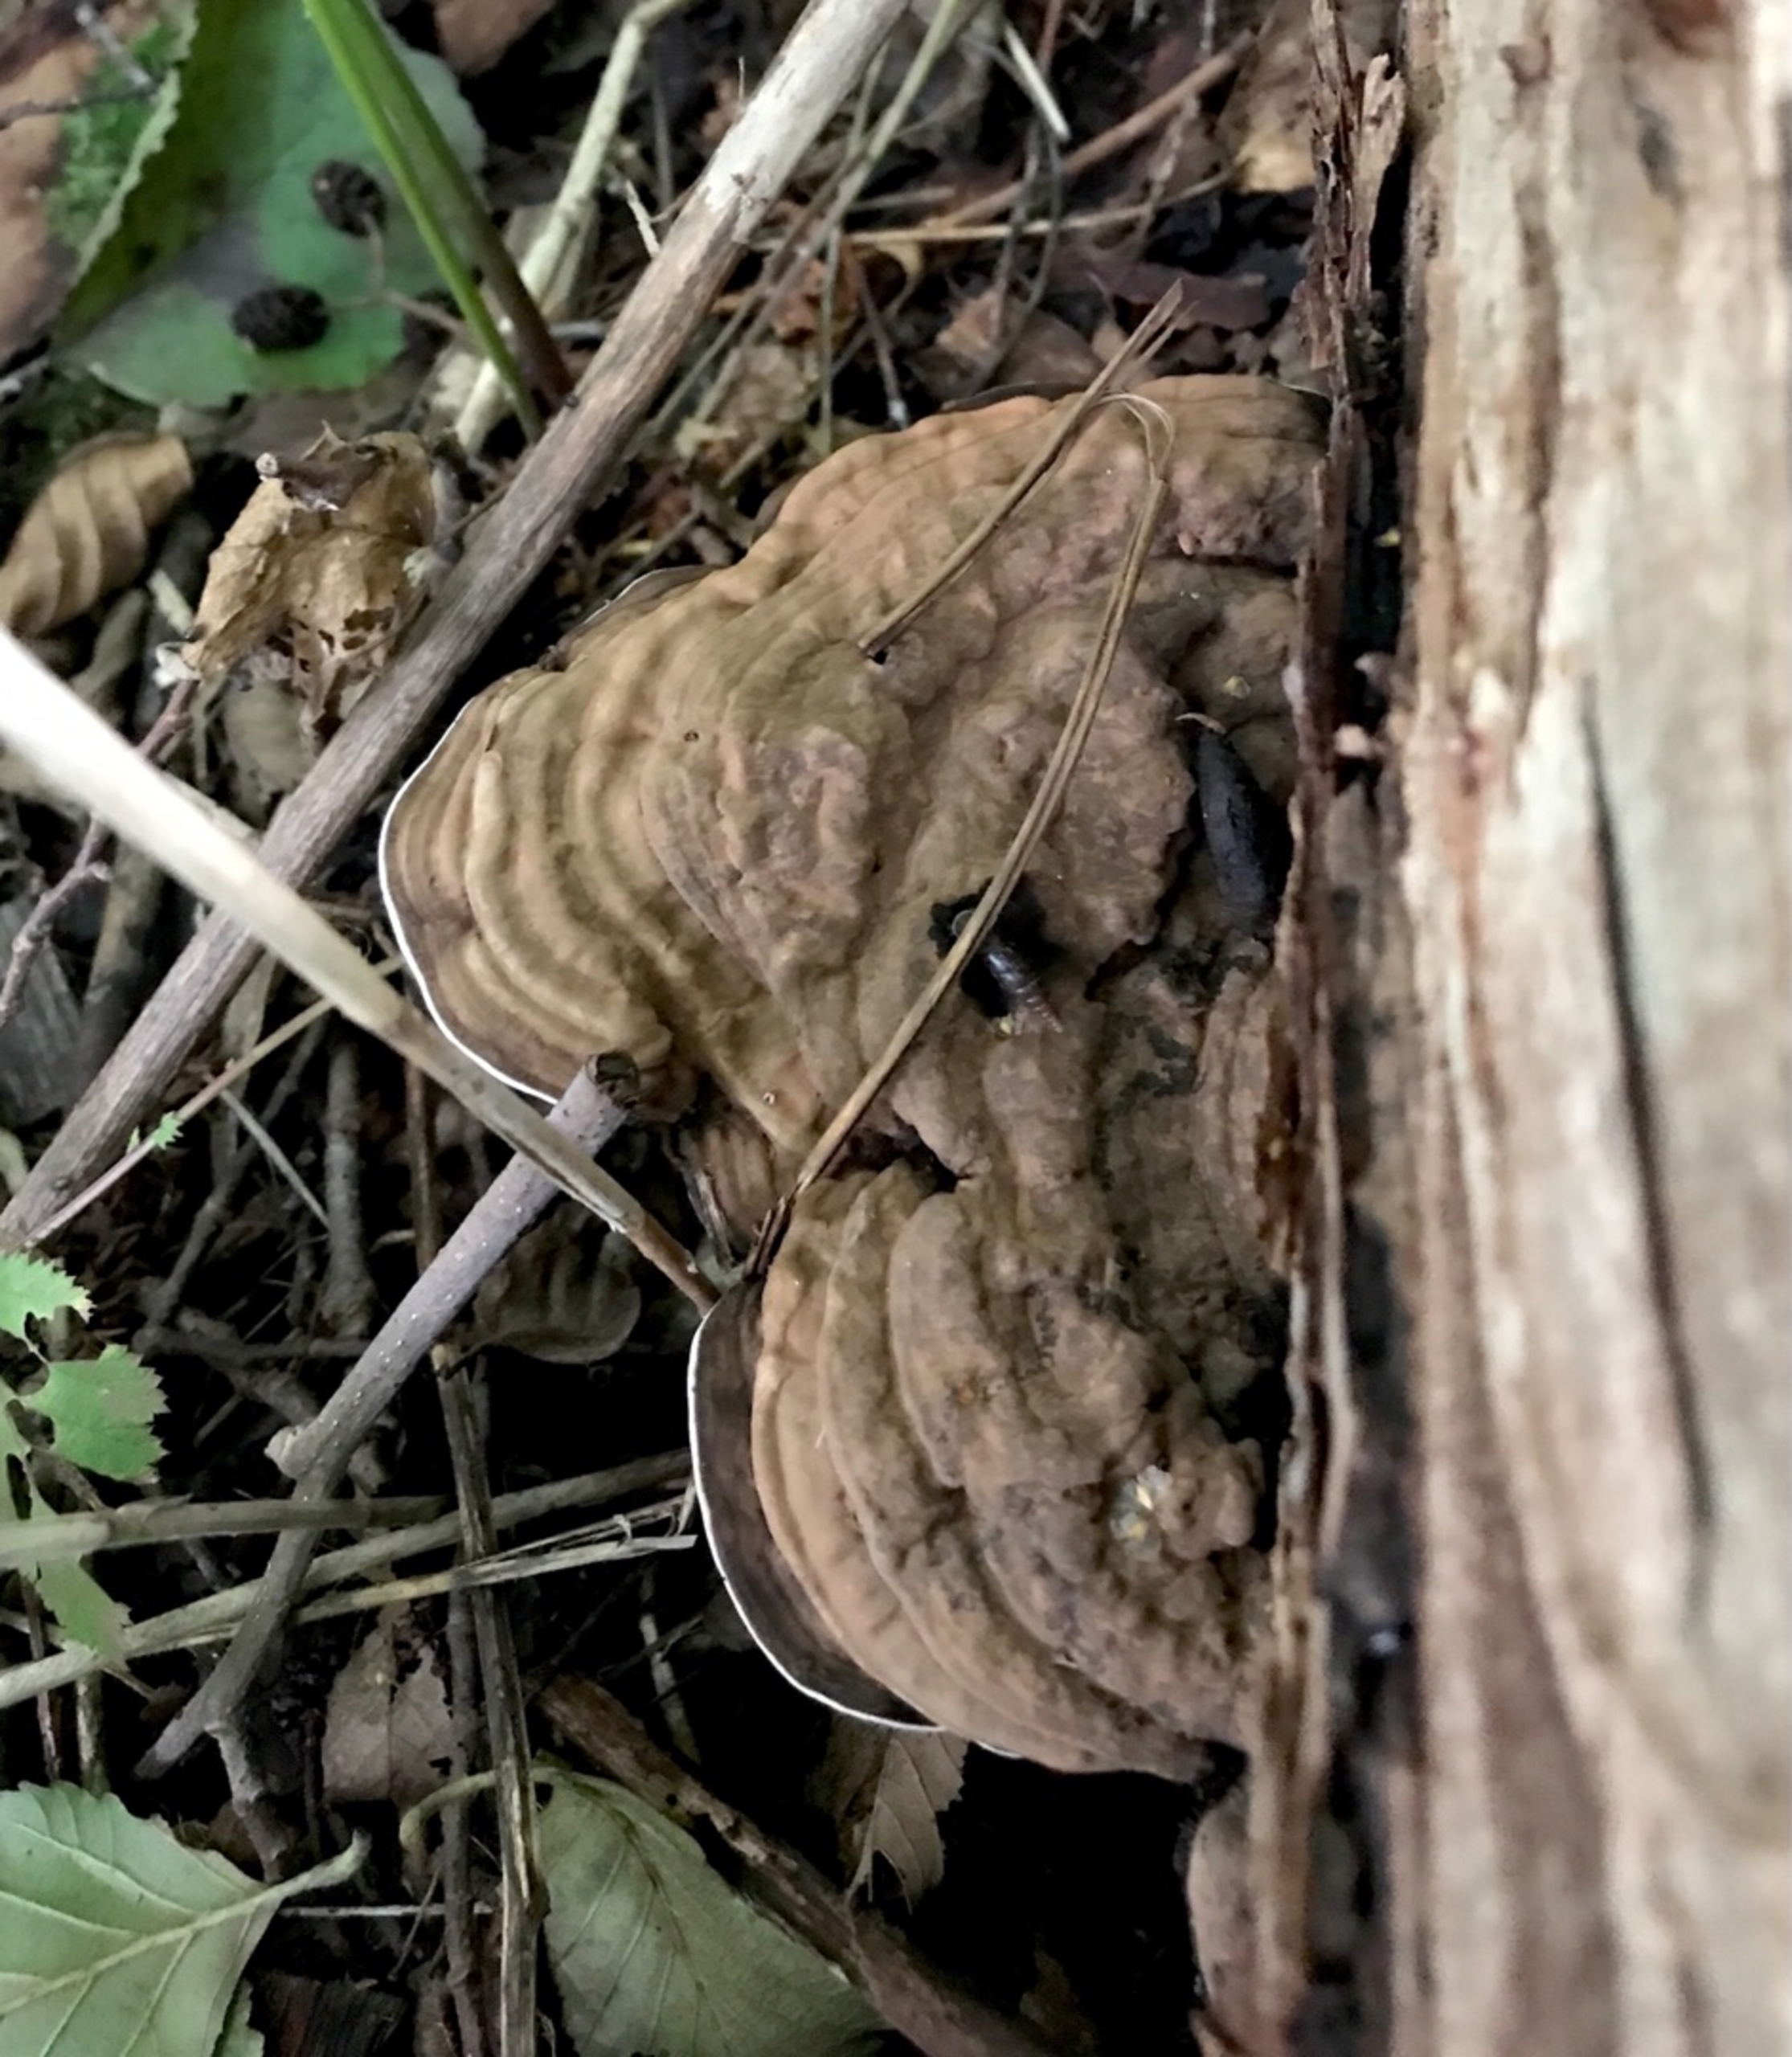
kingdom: Fungi
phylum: Basidiomycota
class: Agaricomycetes
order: Polyporales
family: Polyporaceae
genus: Ganoderma
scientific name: Ganoderma applanatum
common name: Flad lakporesvamp
